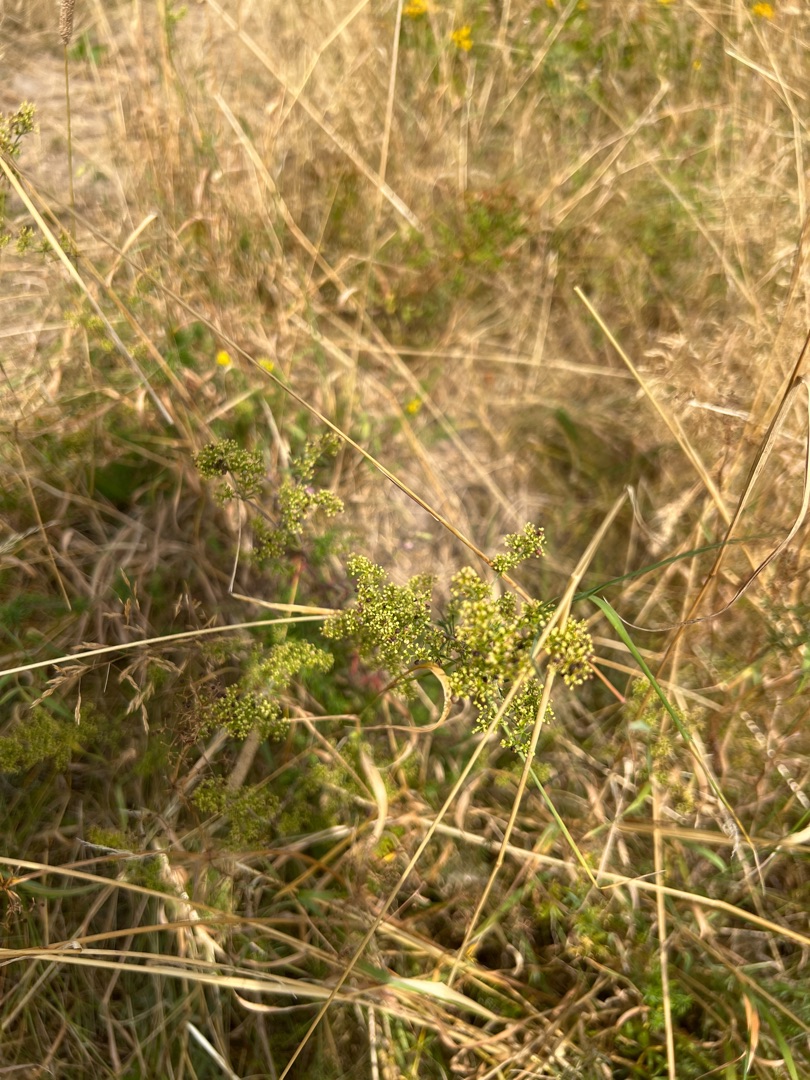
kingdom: Plantae
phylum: Tracheophyta
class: Magnoliopsida
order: Gentianales
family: Rubiaceae
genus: Galium
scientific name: Galium verum
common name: Gul snerre
